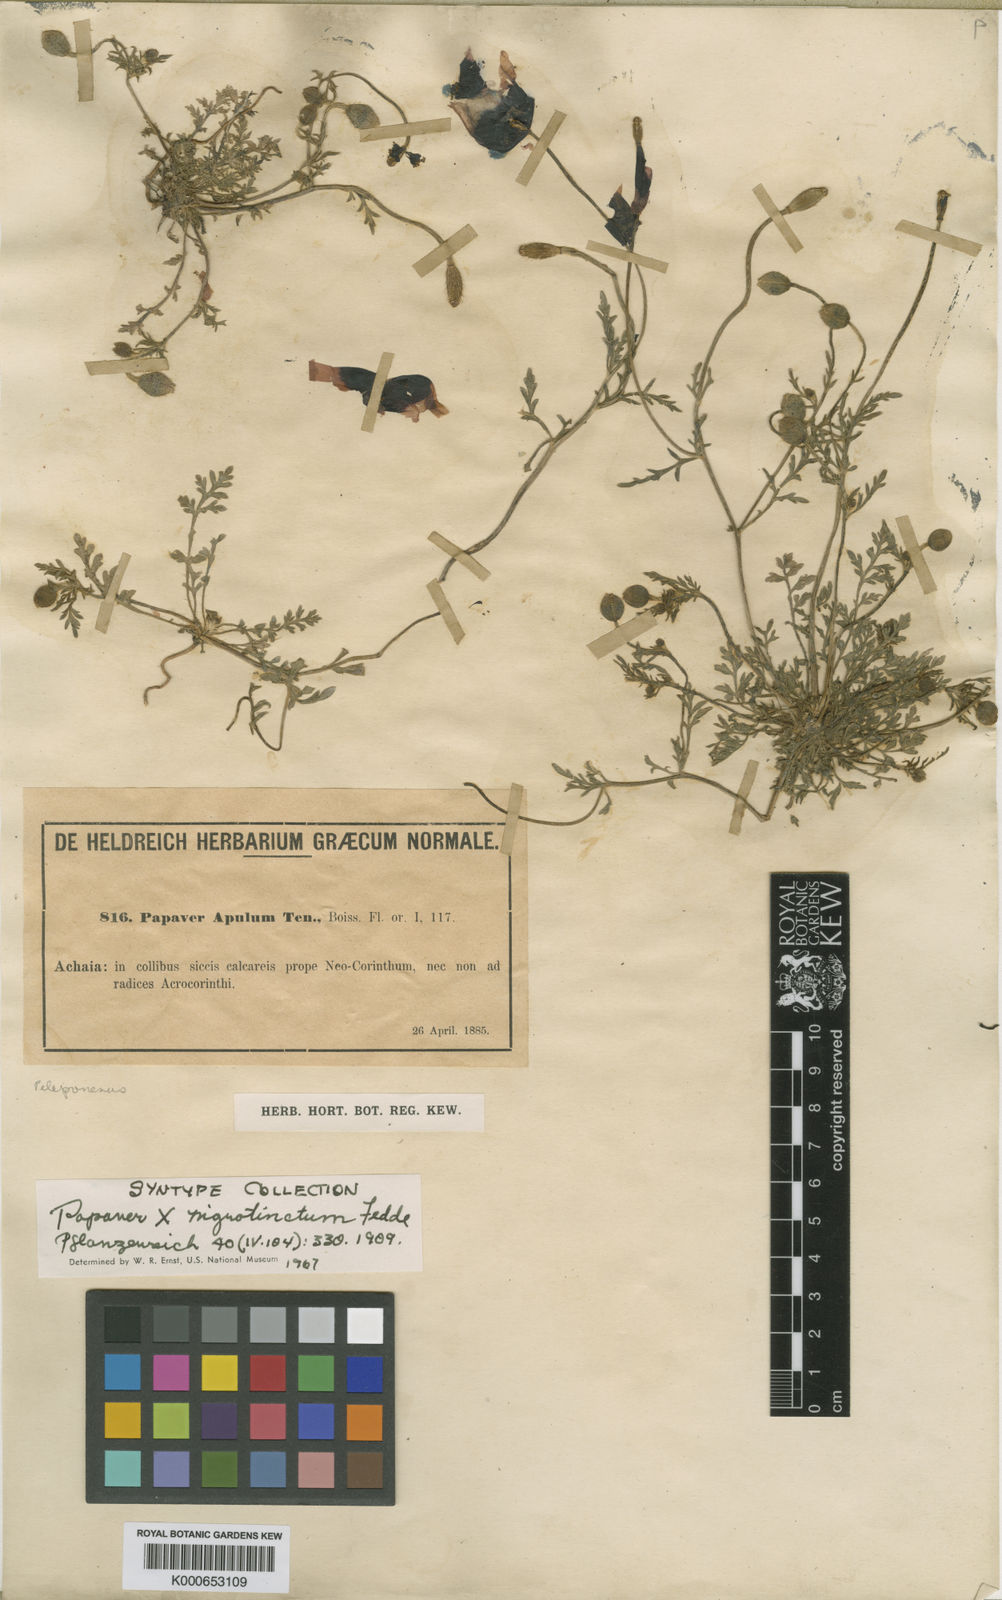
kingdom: Plantae
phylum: Tracheophyta
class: Magnoliopsida
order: Ranunculales
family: Papaveraceae
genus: Roemeria
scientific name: Roemeria nigrotincta
